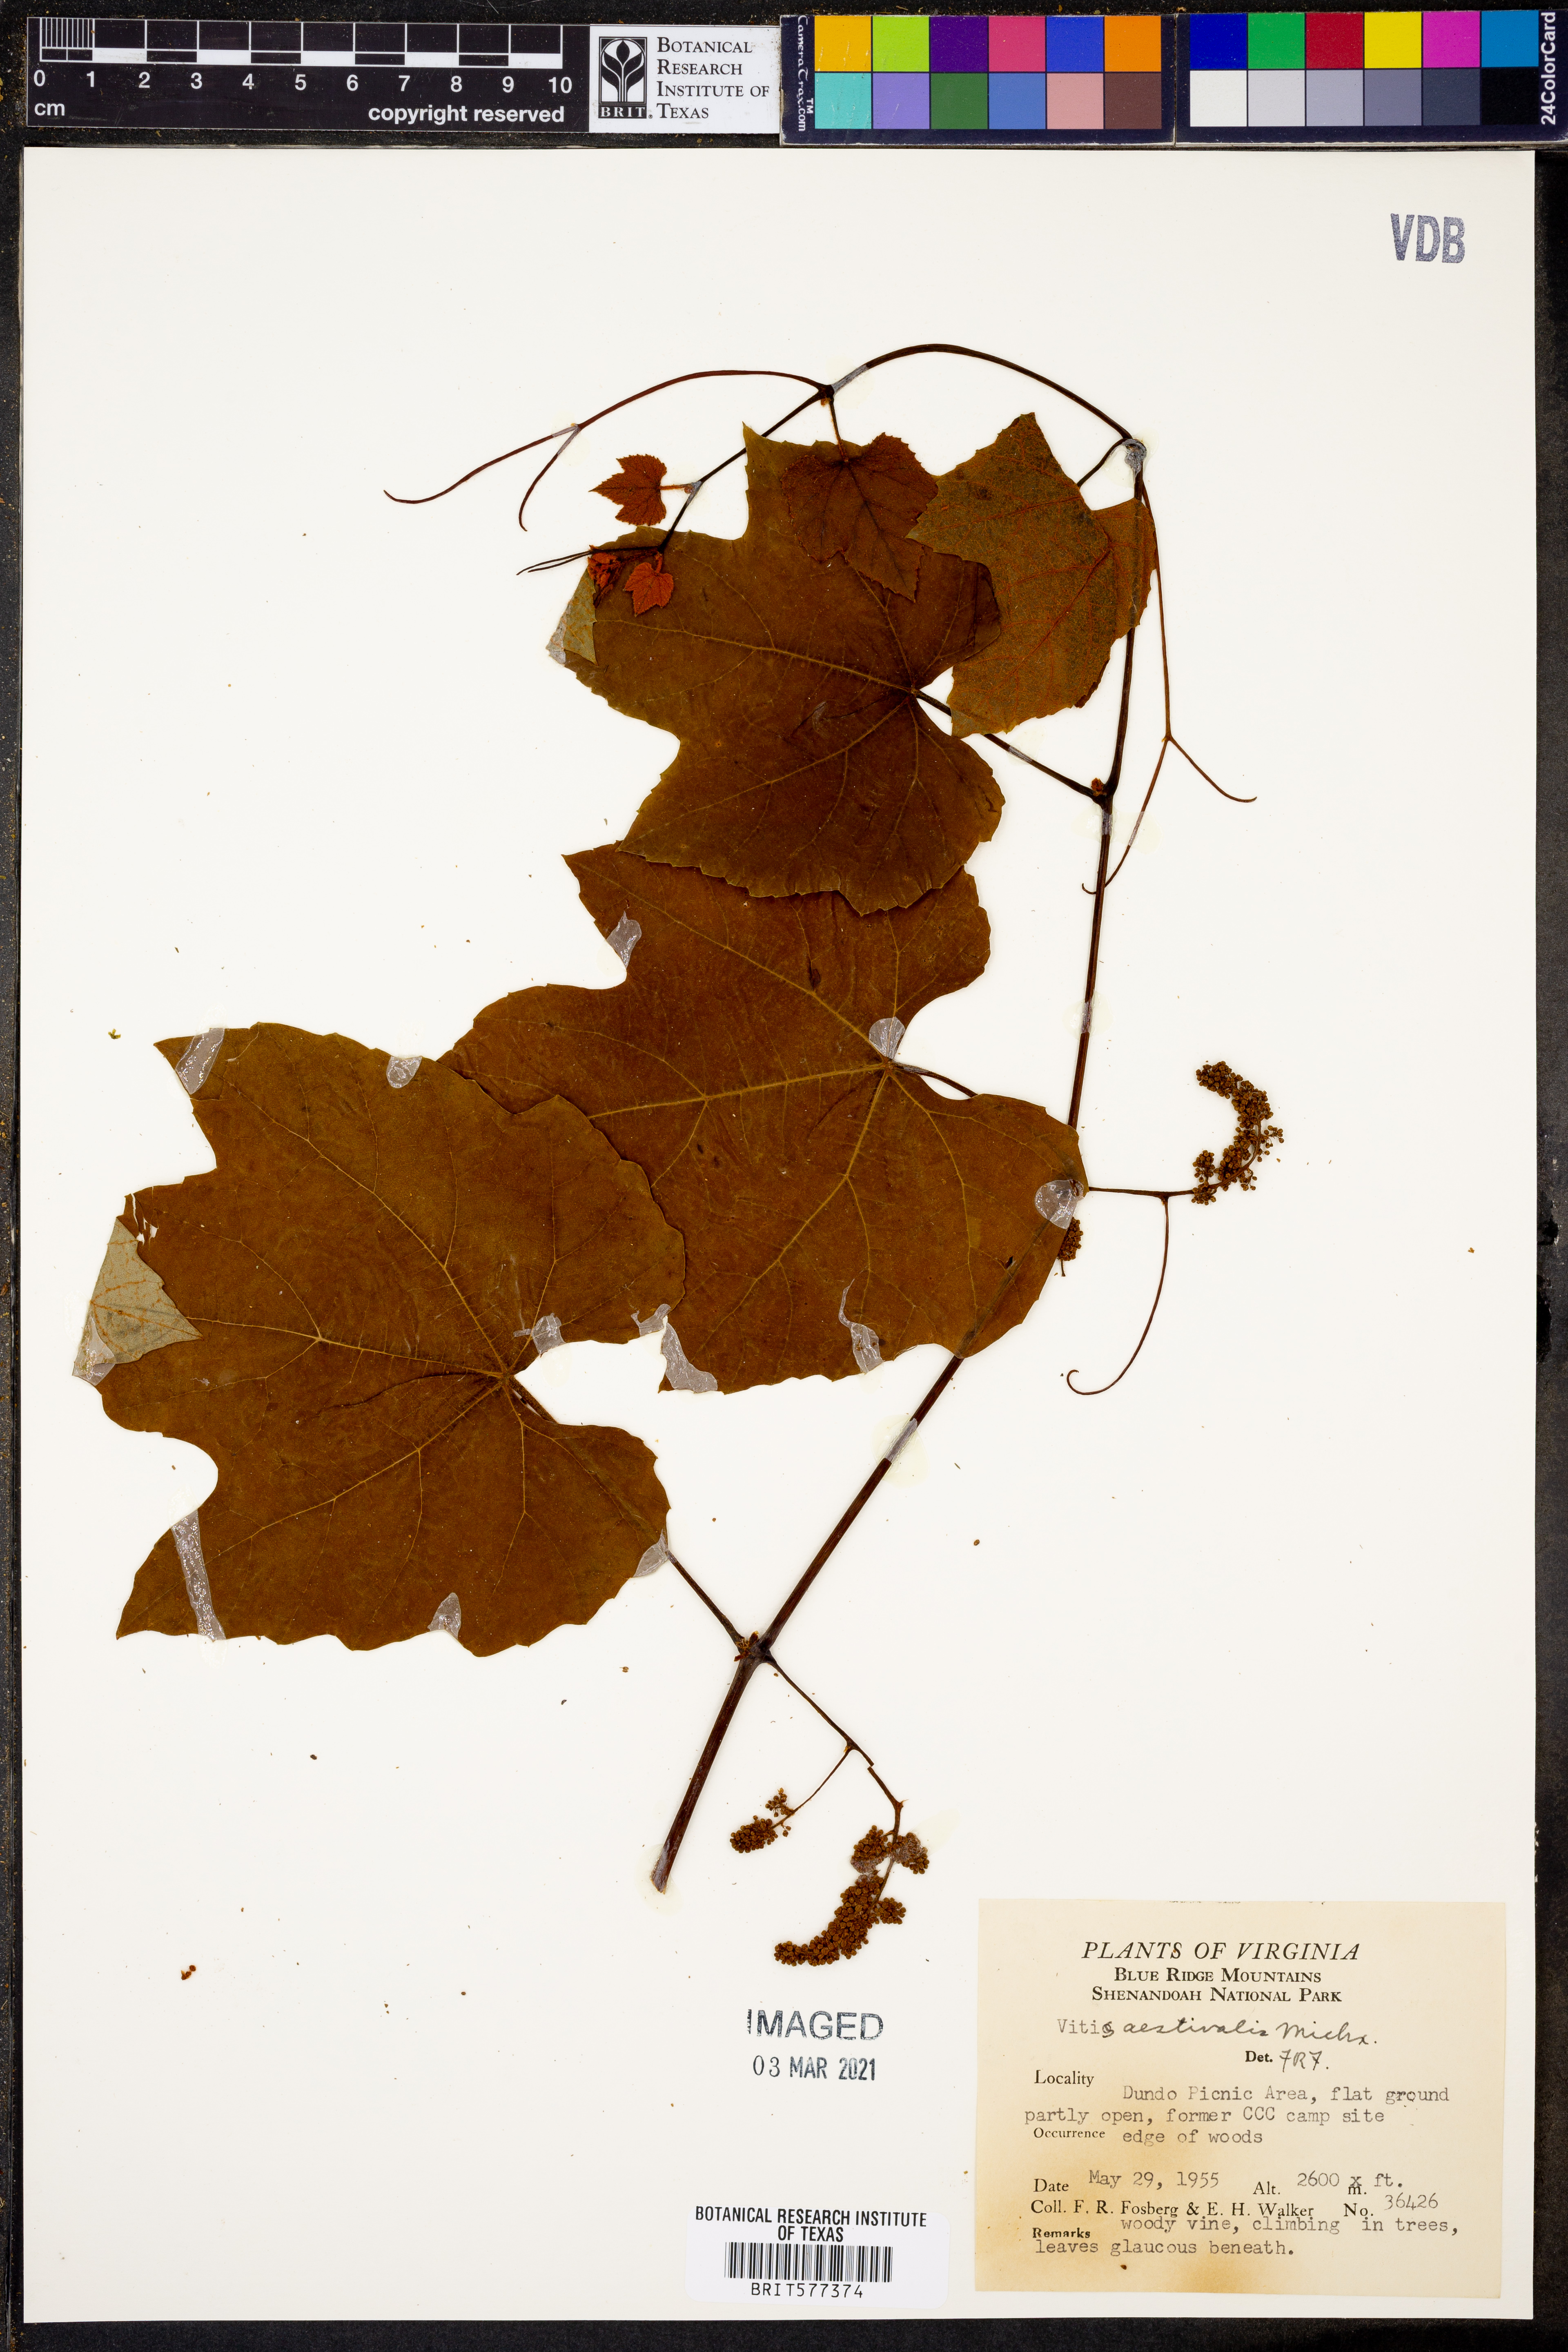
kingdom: Plantae
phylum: Tracheophyta
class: Magnoliopsida
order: Vitales
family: Vitaceae
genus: Vitis
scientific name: Vitis aestivalis
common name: Pigeon grape
